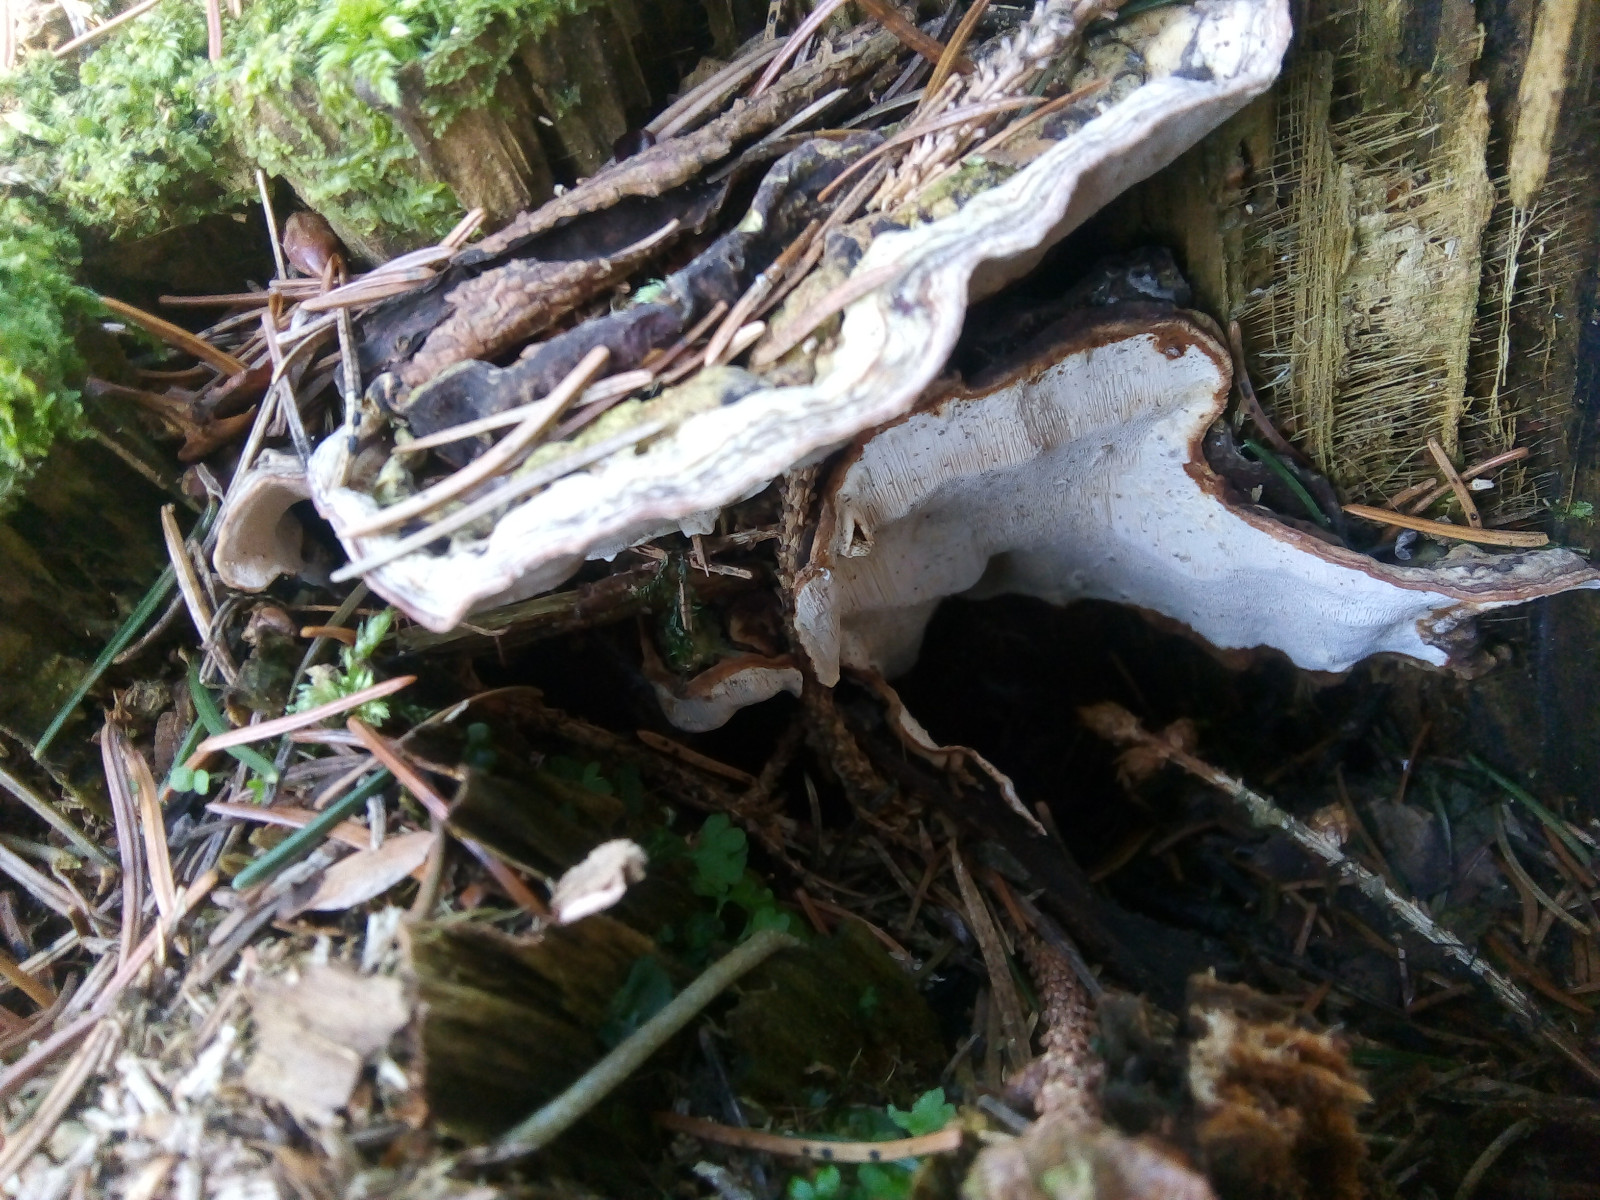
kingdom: Fungi
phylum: Basidiomycota
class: Agaricomycetes
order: Russulales
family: Bondarzewiaceae
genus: Heterobasidion
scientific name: Heterobasidion annosum
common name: almindelig rodfordærver
